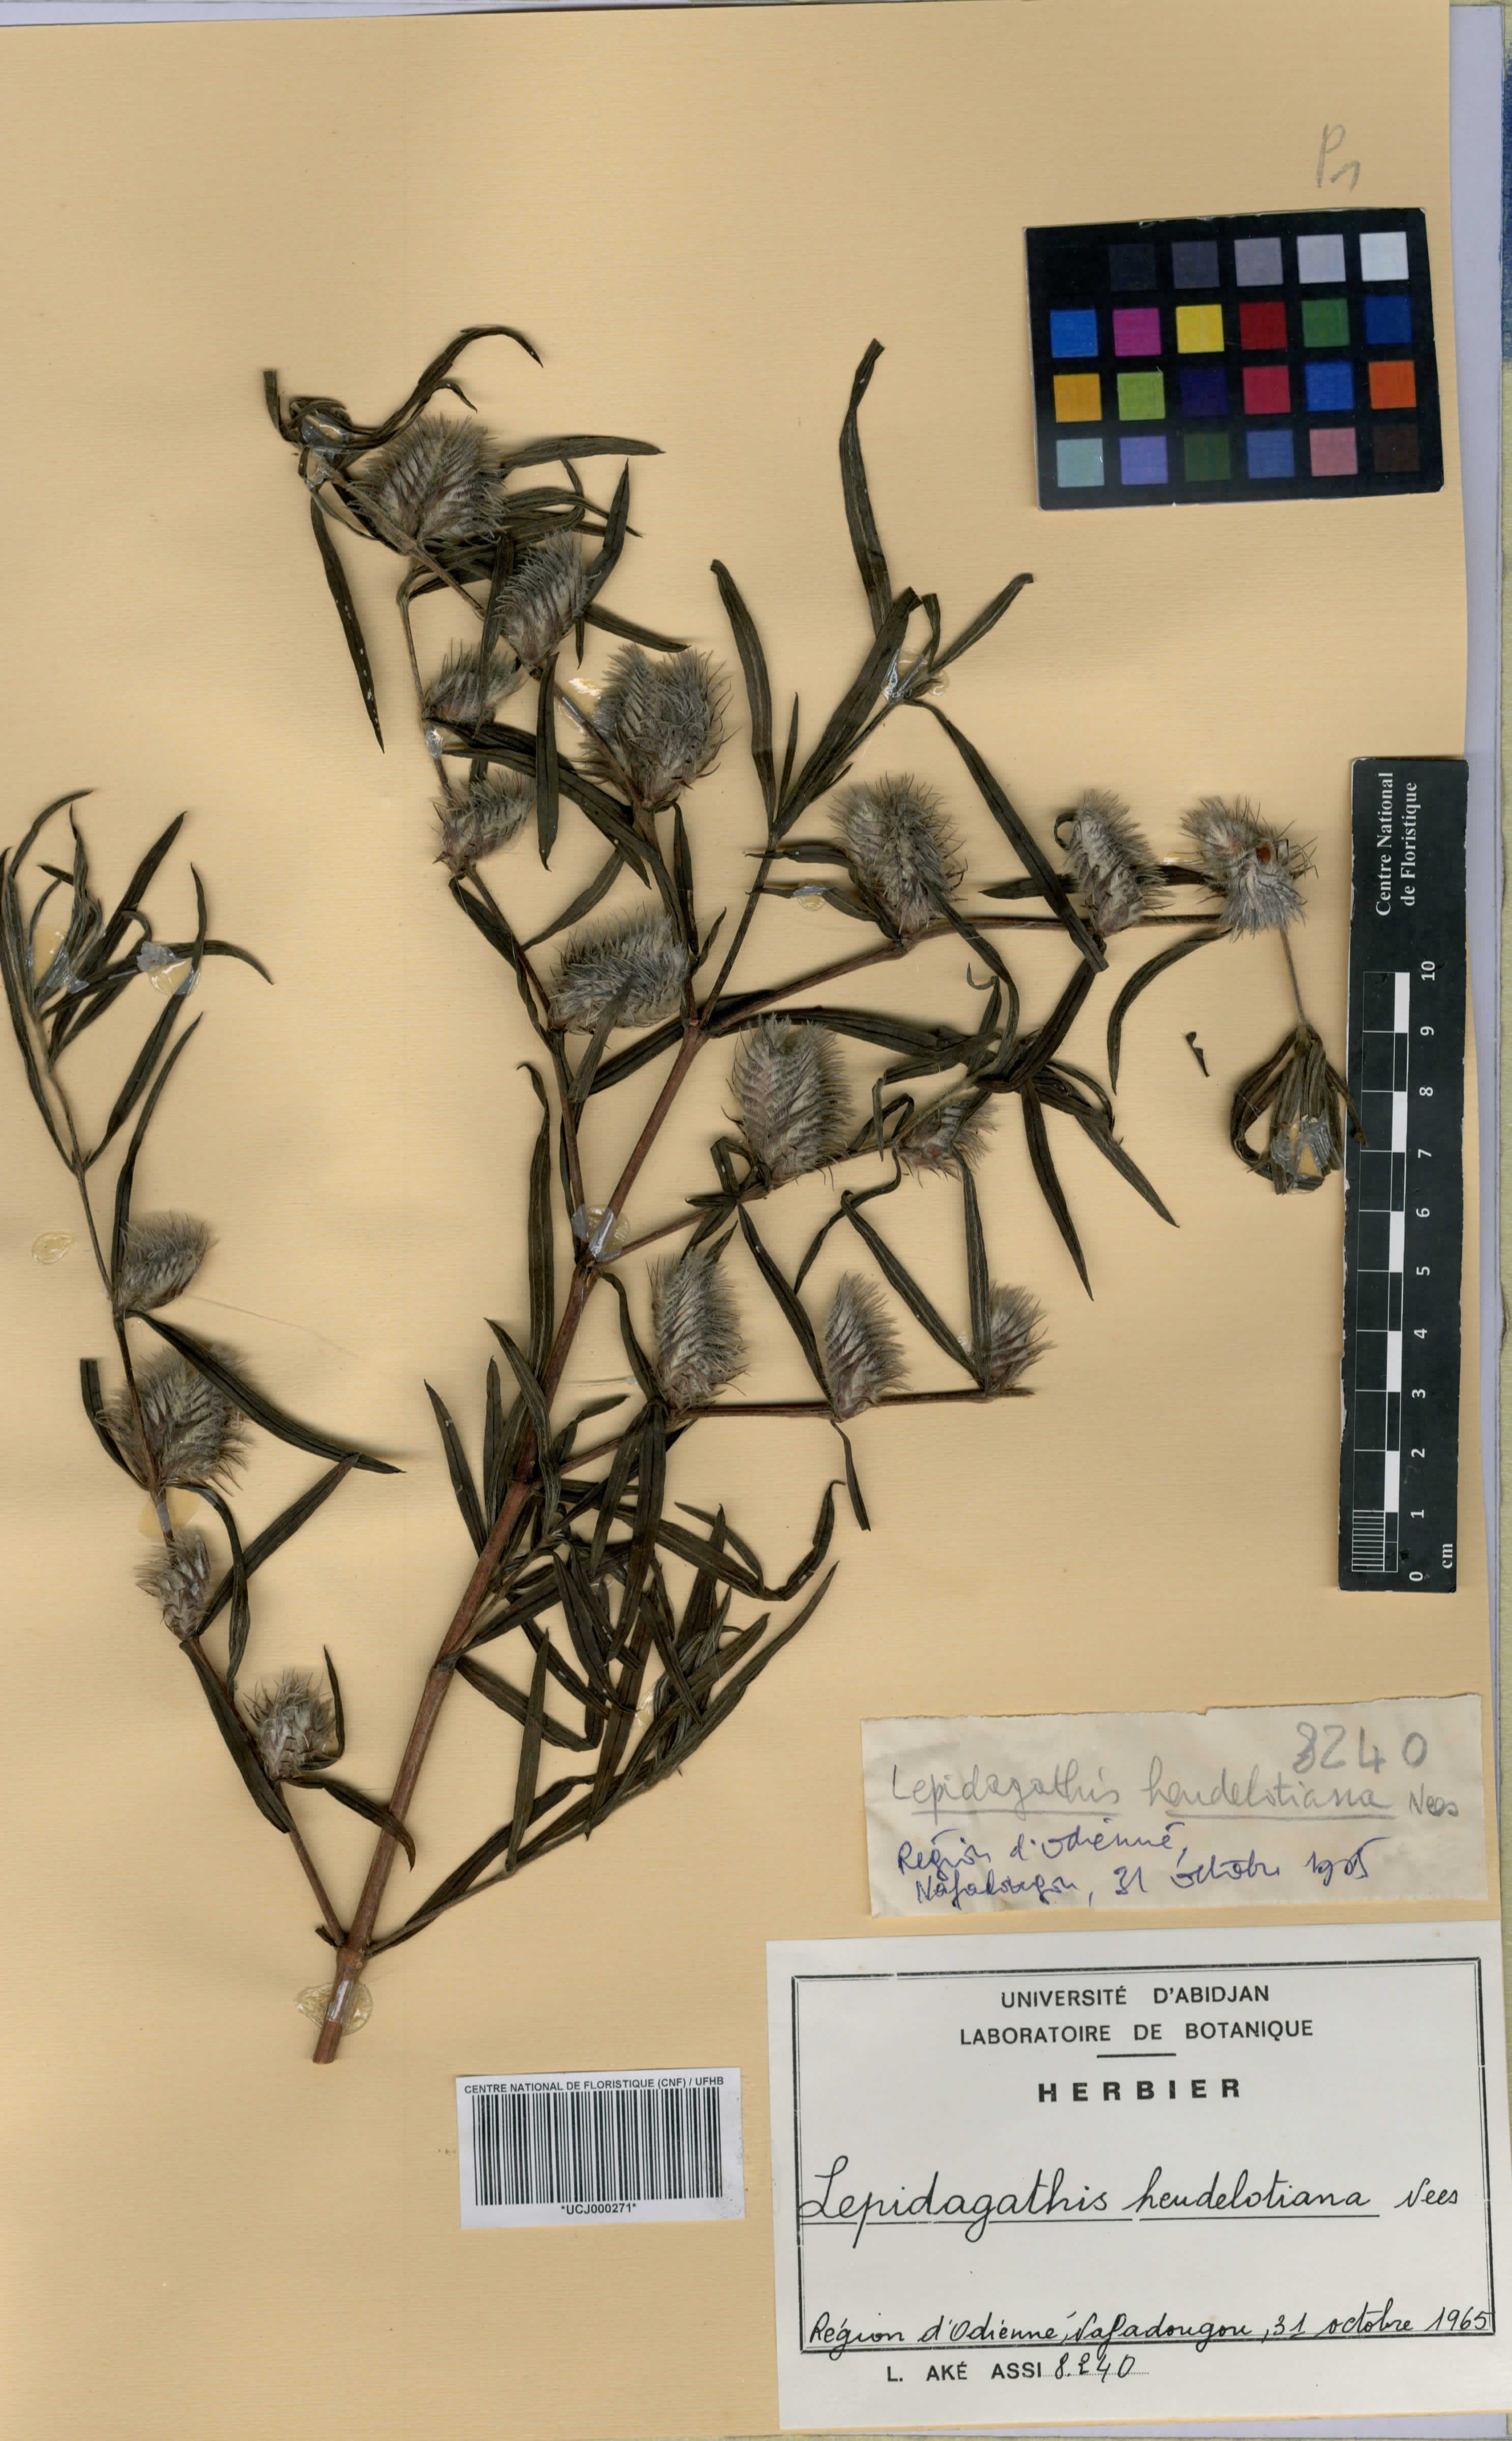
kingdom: Plantae
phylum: Tracheophyta
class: Magnoliopsida
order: Lamiales
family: Acanthaceae
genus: Lepidagathis
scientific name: Lepidagathis heudelotiana
